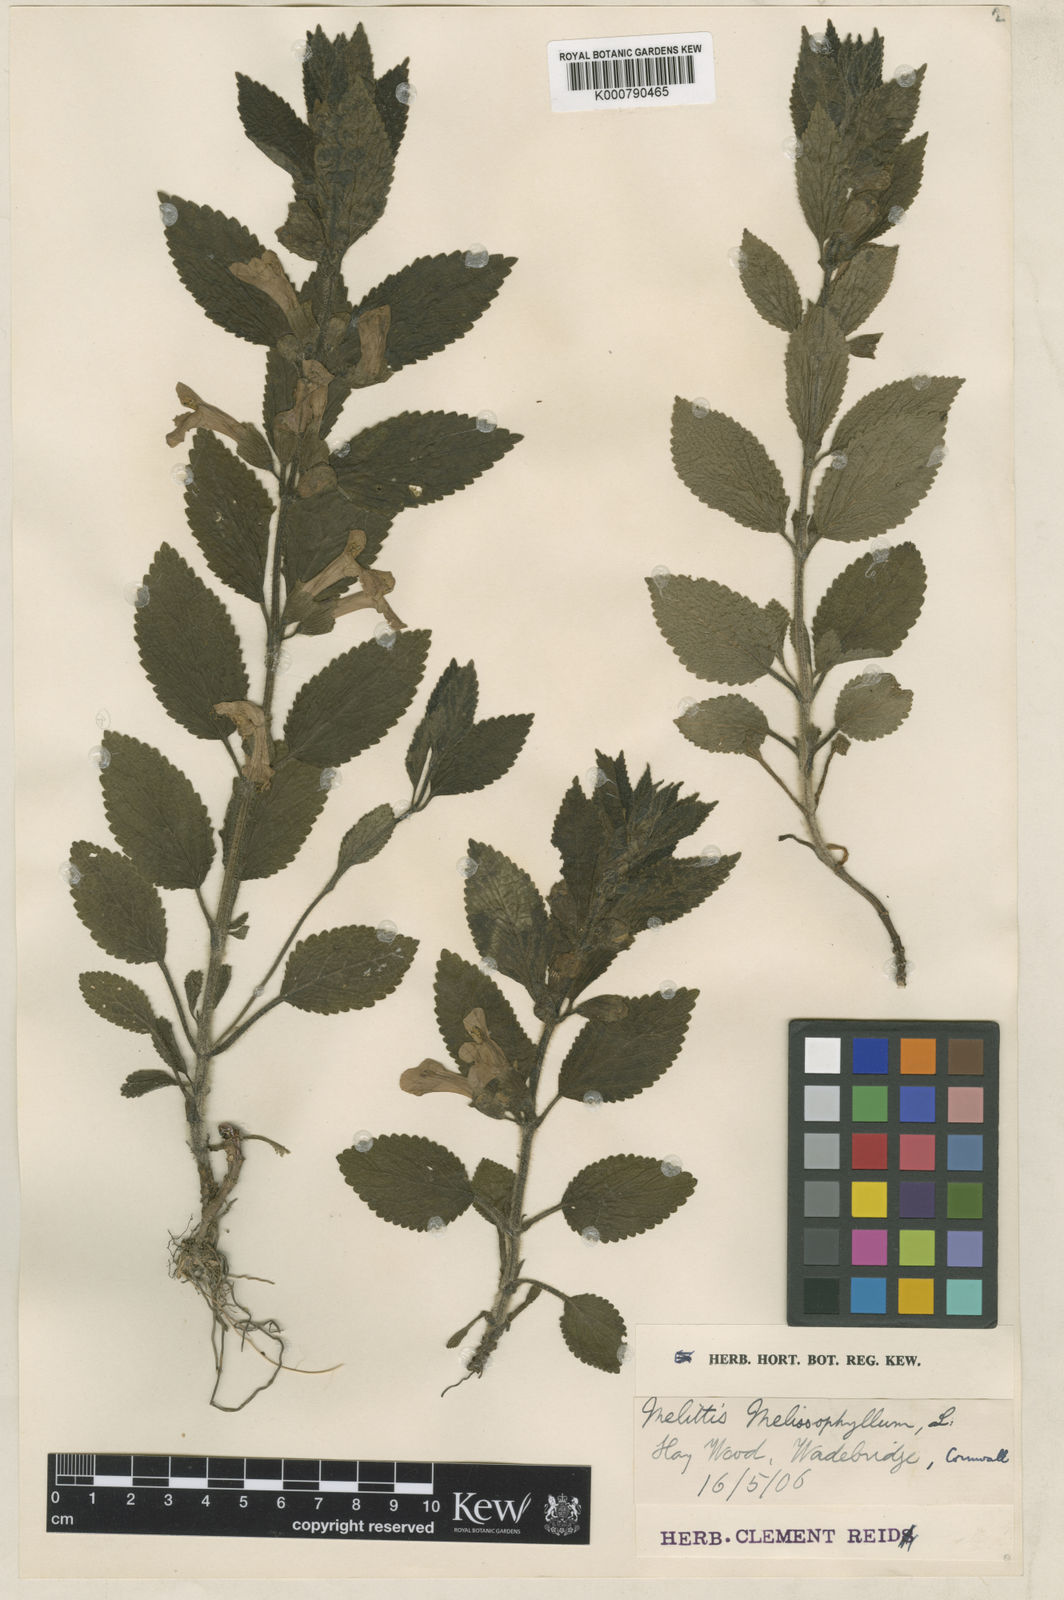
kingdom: Plantae
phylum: Tracheophyta
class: Magnoliopsida
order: Lamiales
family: Lamiaceae
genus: Melittis
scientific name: Melittis melissophyllum
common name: Bastard balm
